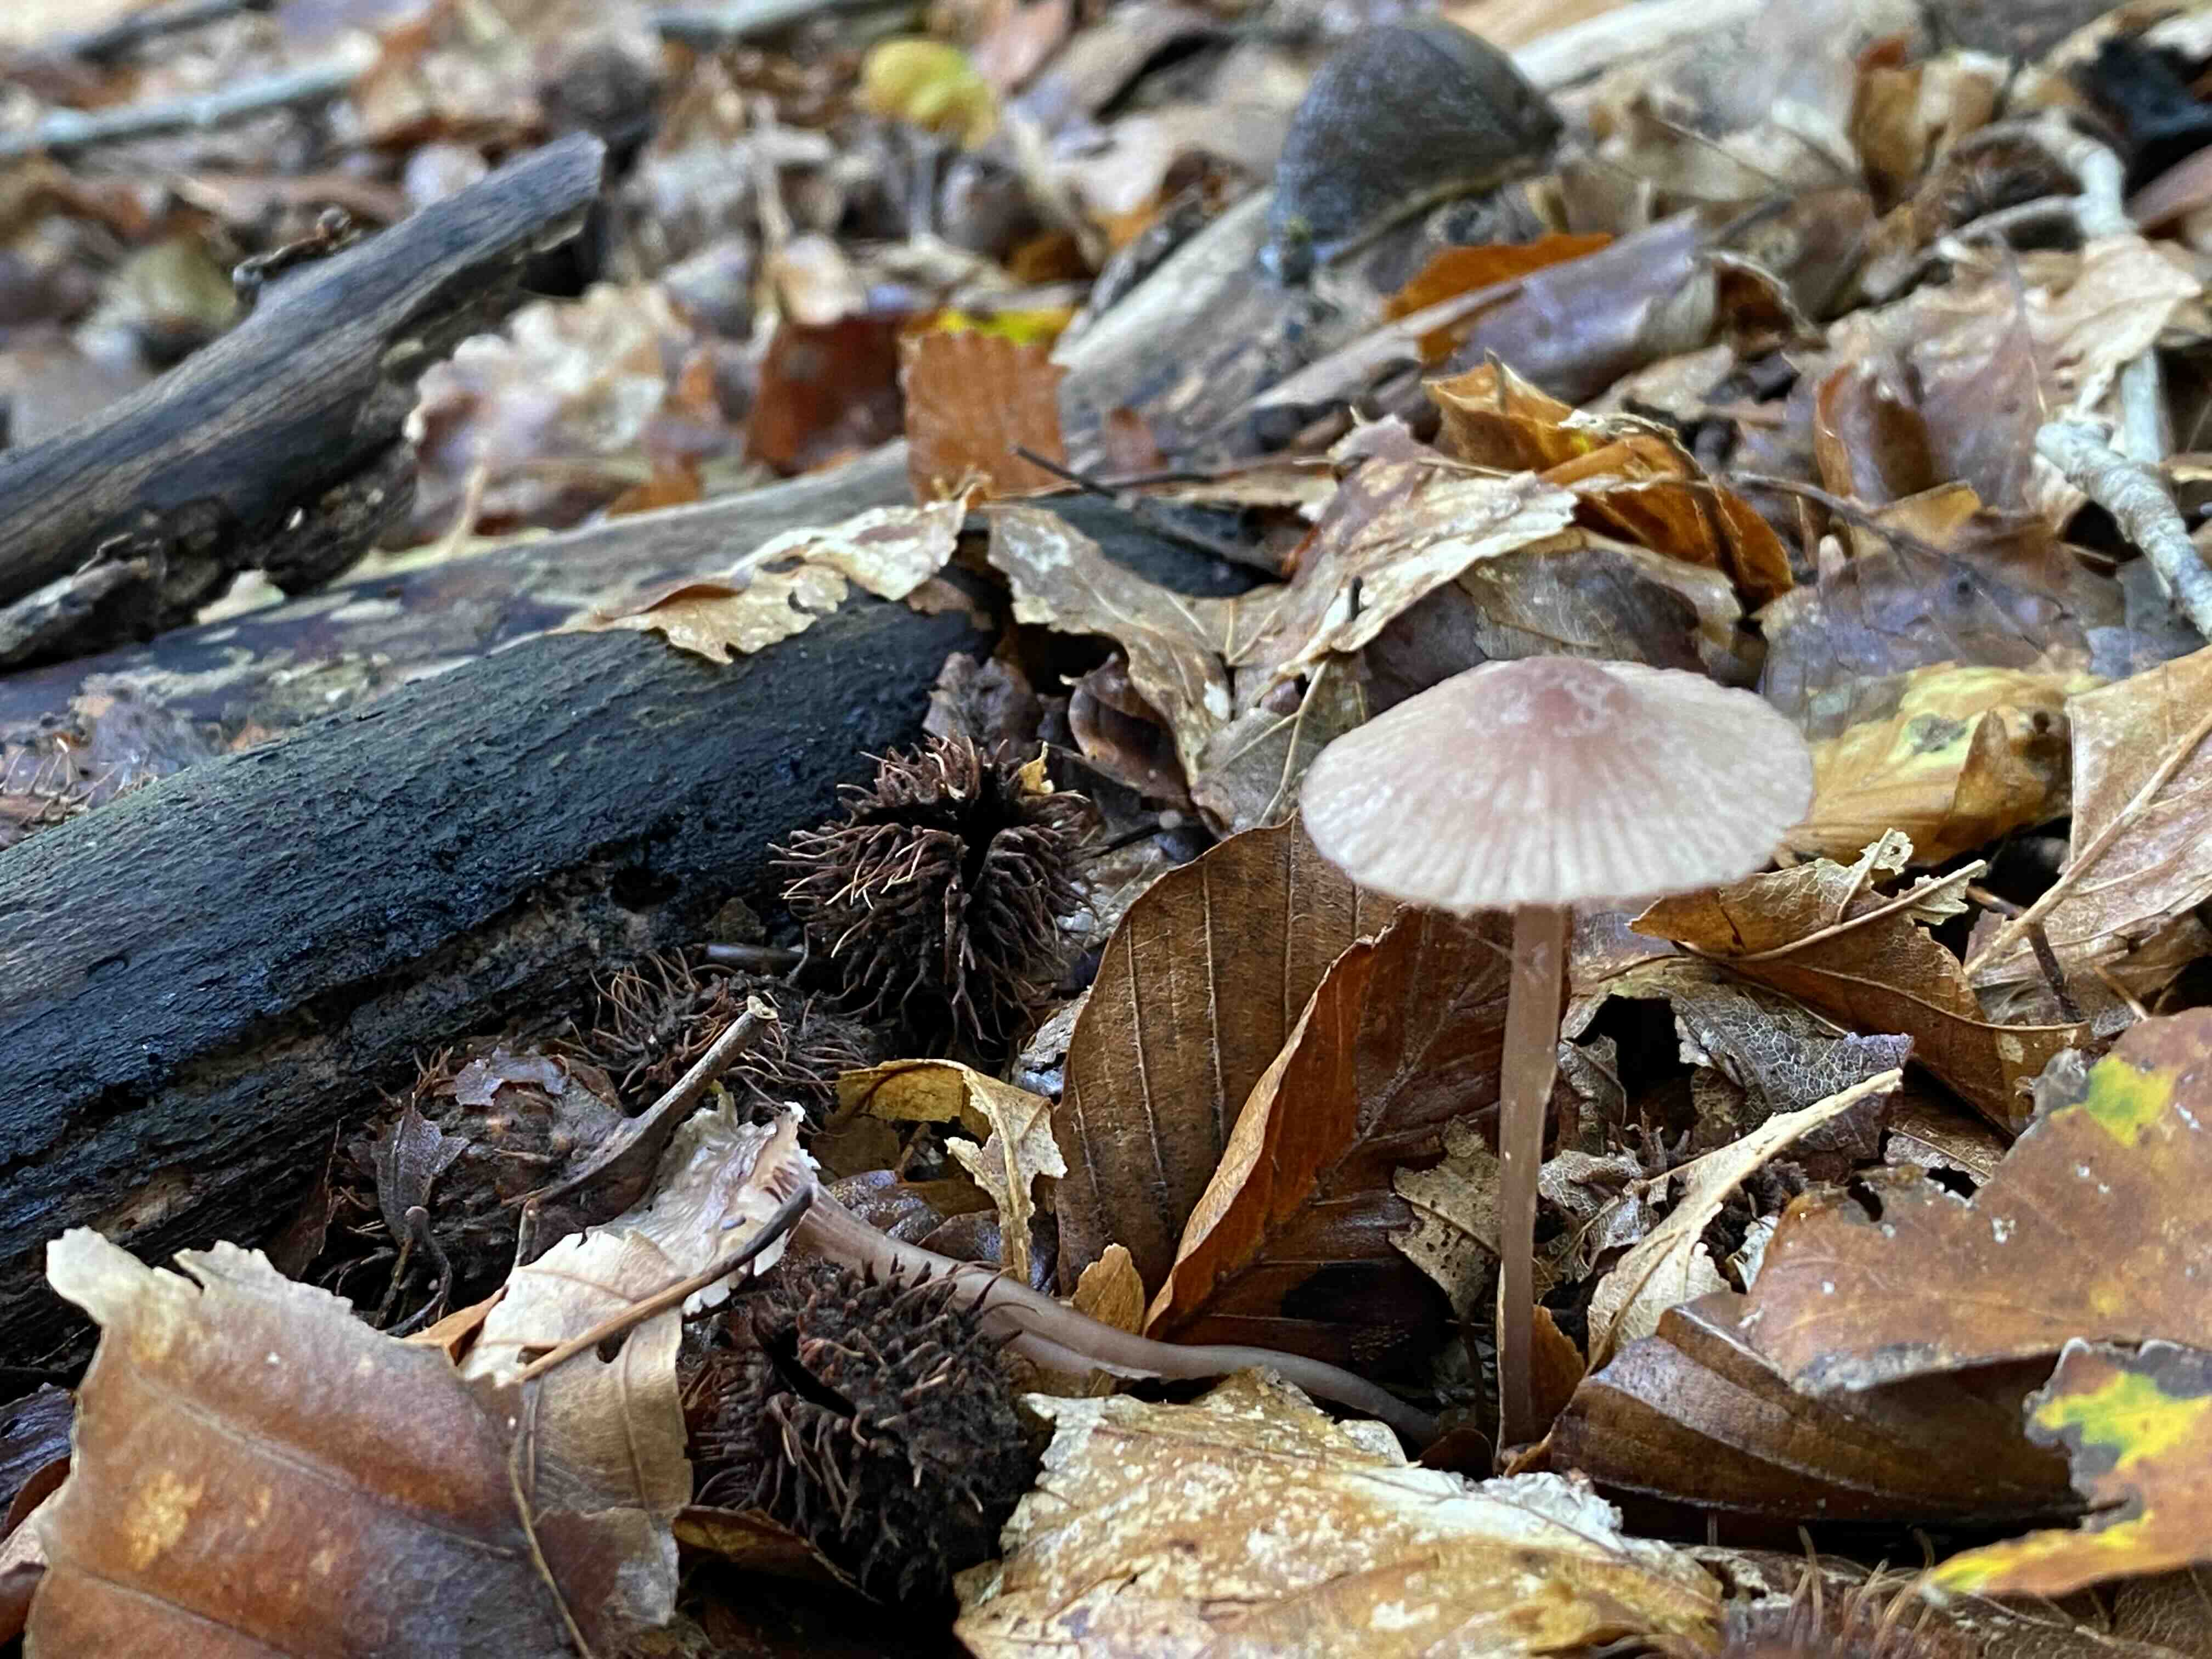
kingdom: Fungi
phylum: Basidiomycota
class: Agaricomycetes
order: Agaricales
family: Mycenaceae
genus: Mycena
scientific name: Mycena sanguinolenta
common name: rødmælket huesvamp
